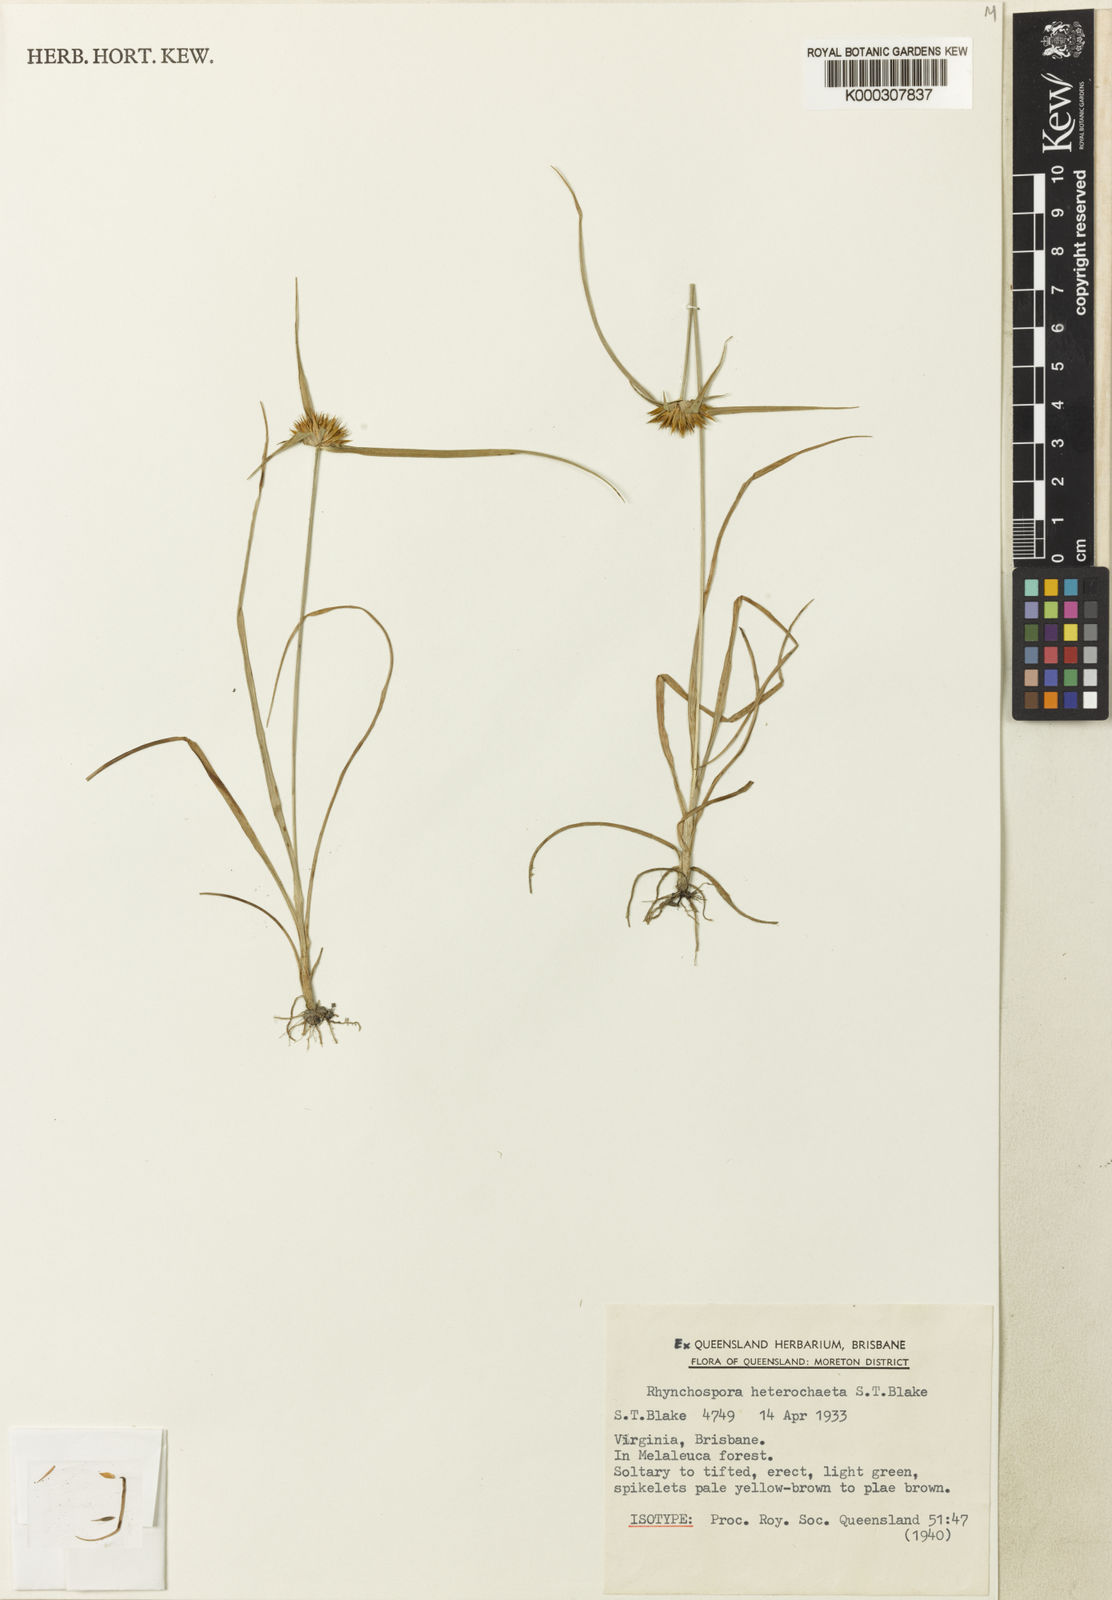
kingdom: Plantae
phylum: Tracheophyta
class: Liliopsida
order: Poales
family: Cyperaceae
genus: Rhynchospora
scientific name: Rhynchospora heterochaeta
